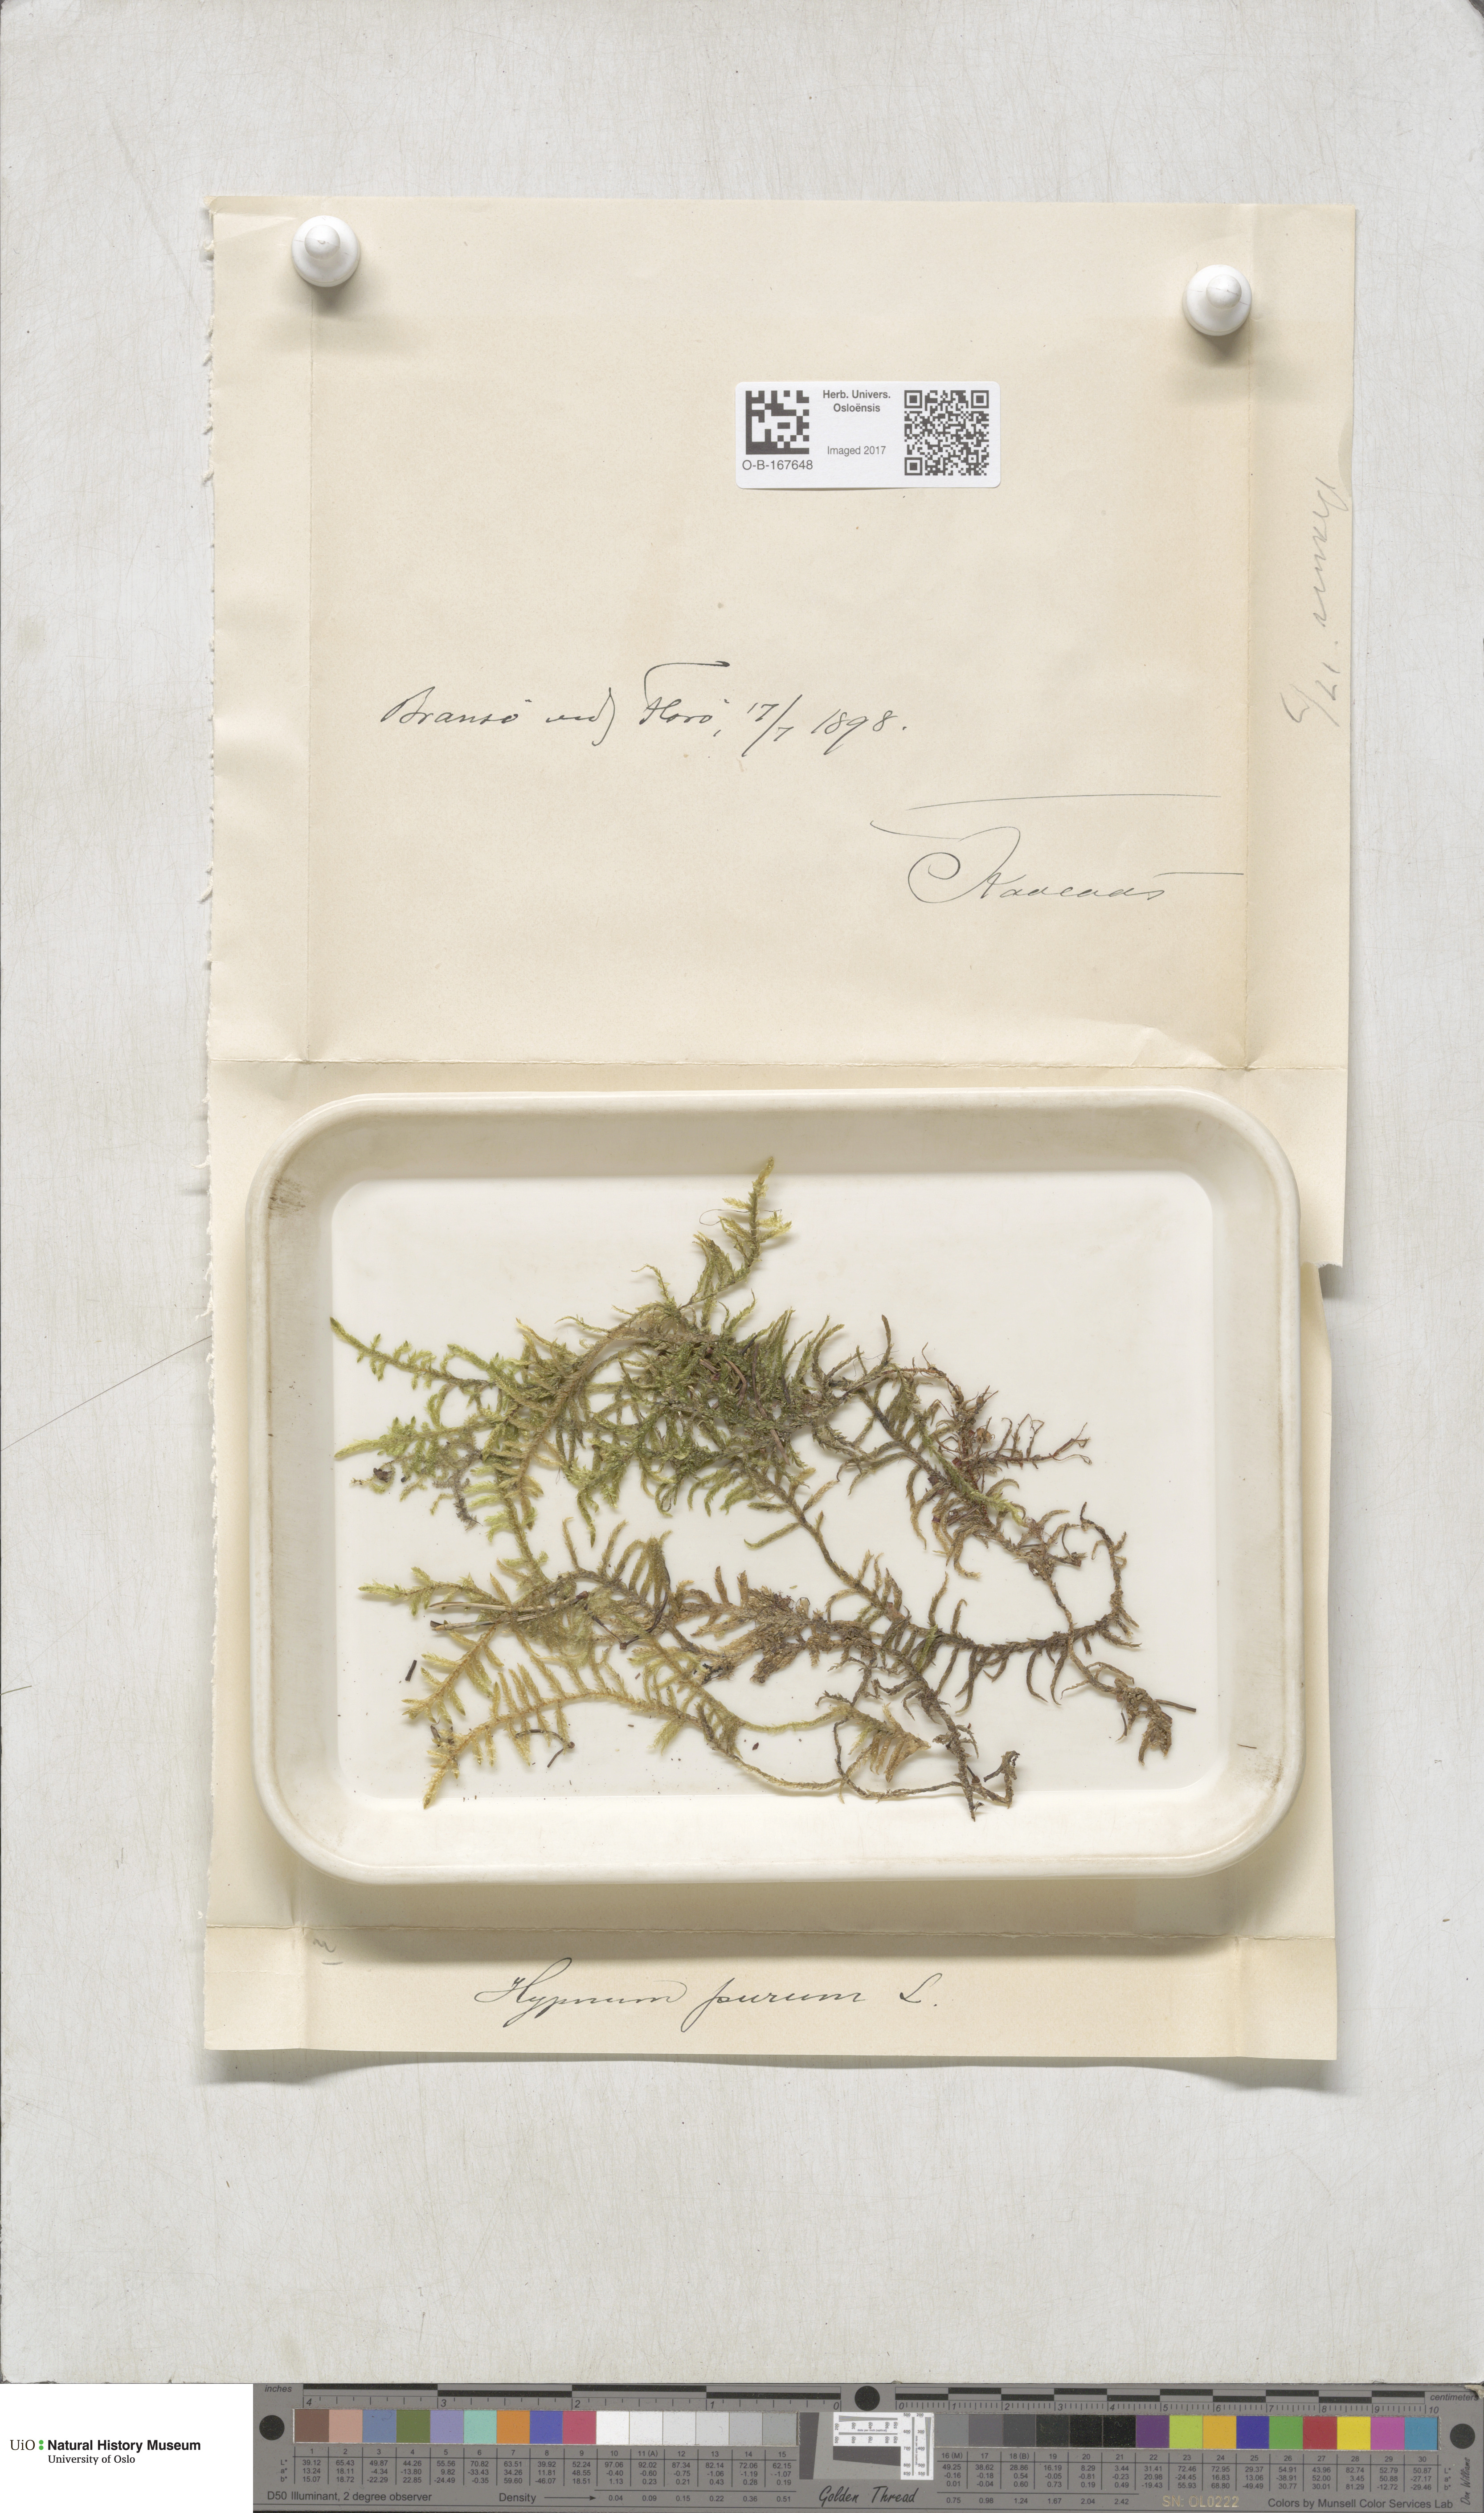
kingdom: Plantae
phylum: Bryophyta
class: Bryopsida
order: Hypnales
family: Brachytheciaceae
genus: Pseudoscleropodium
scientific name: Pseudoscleropodium purum
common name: Neat feather-moss
